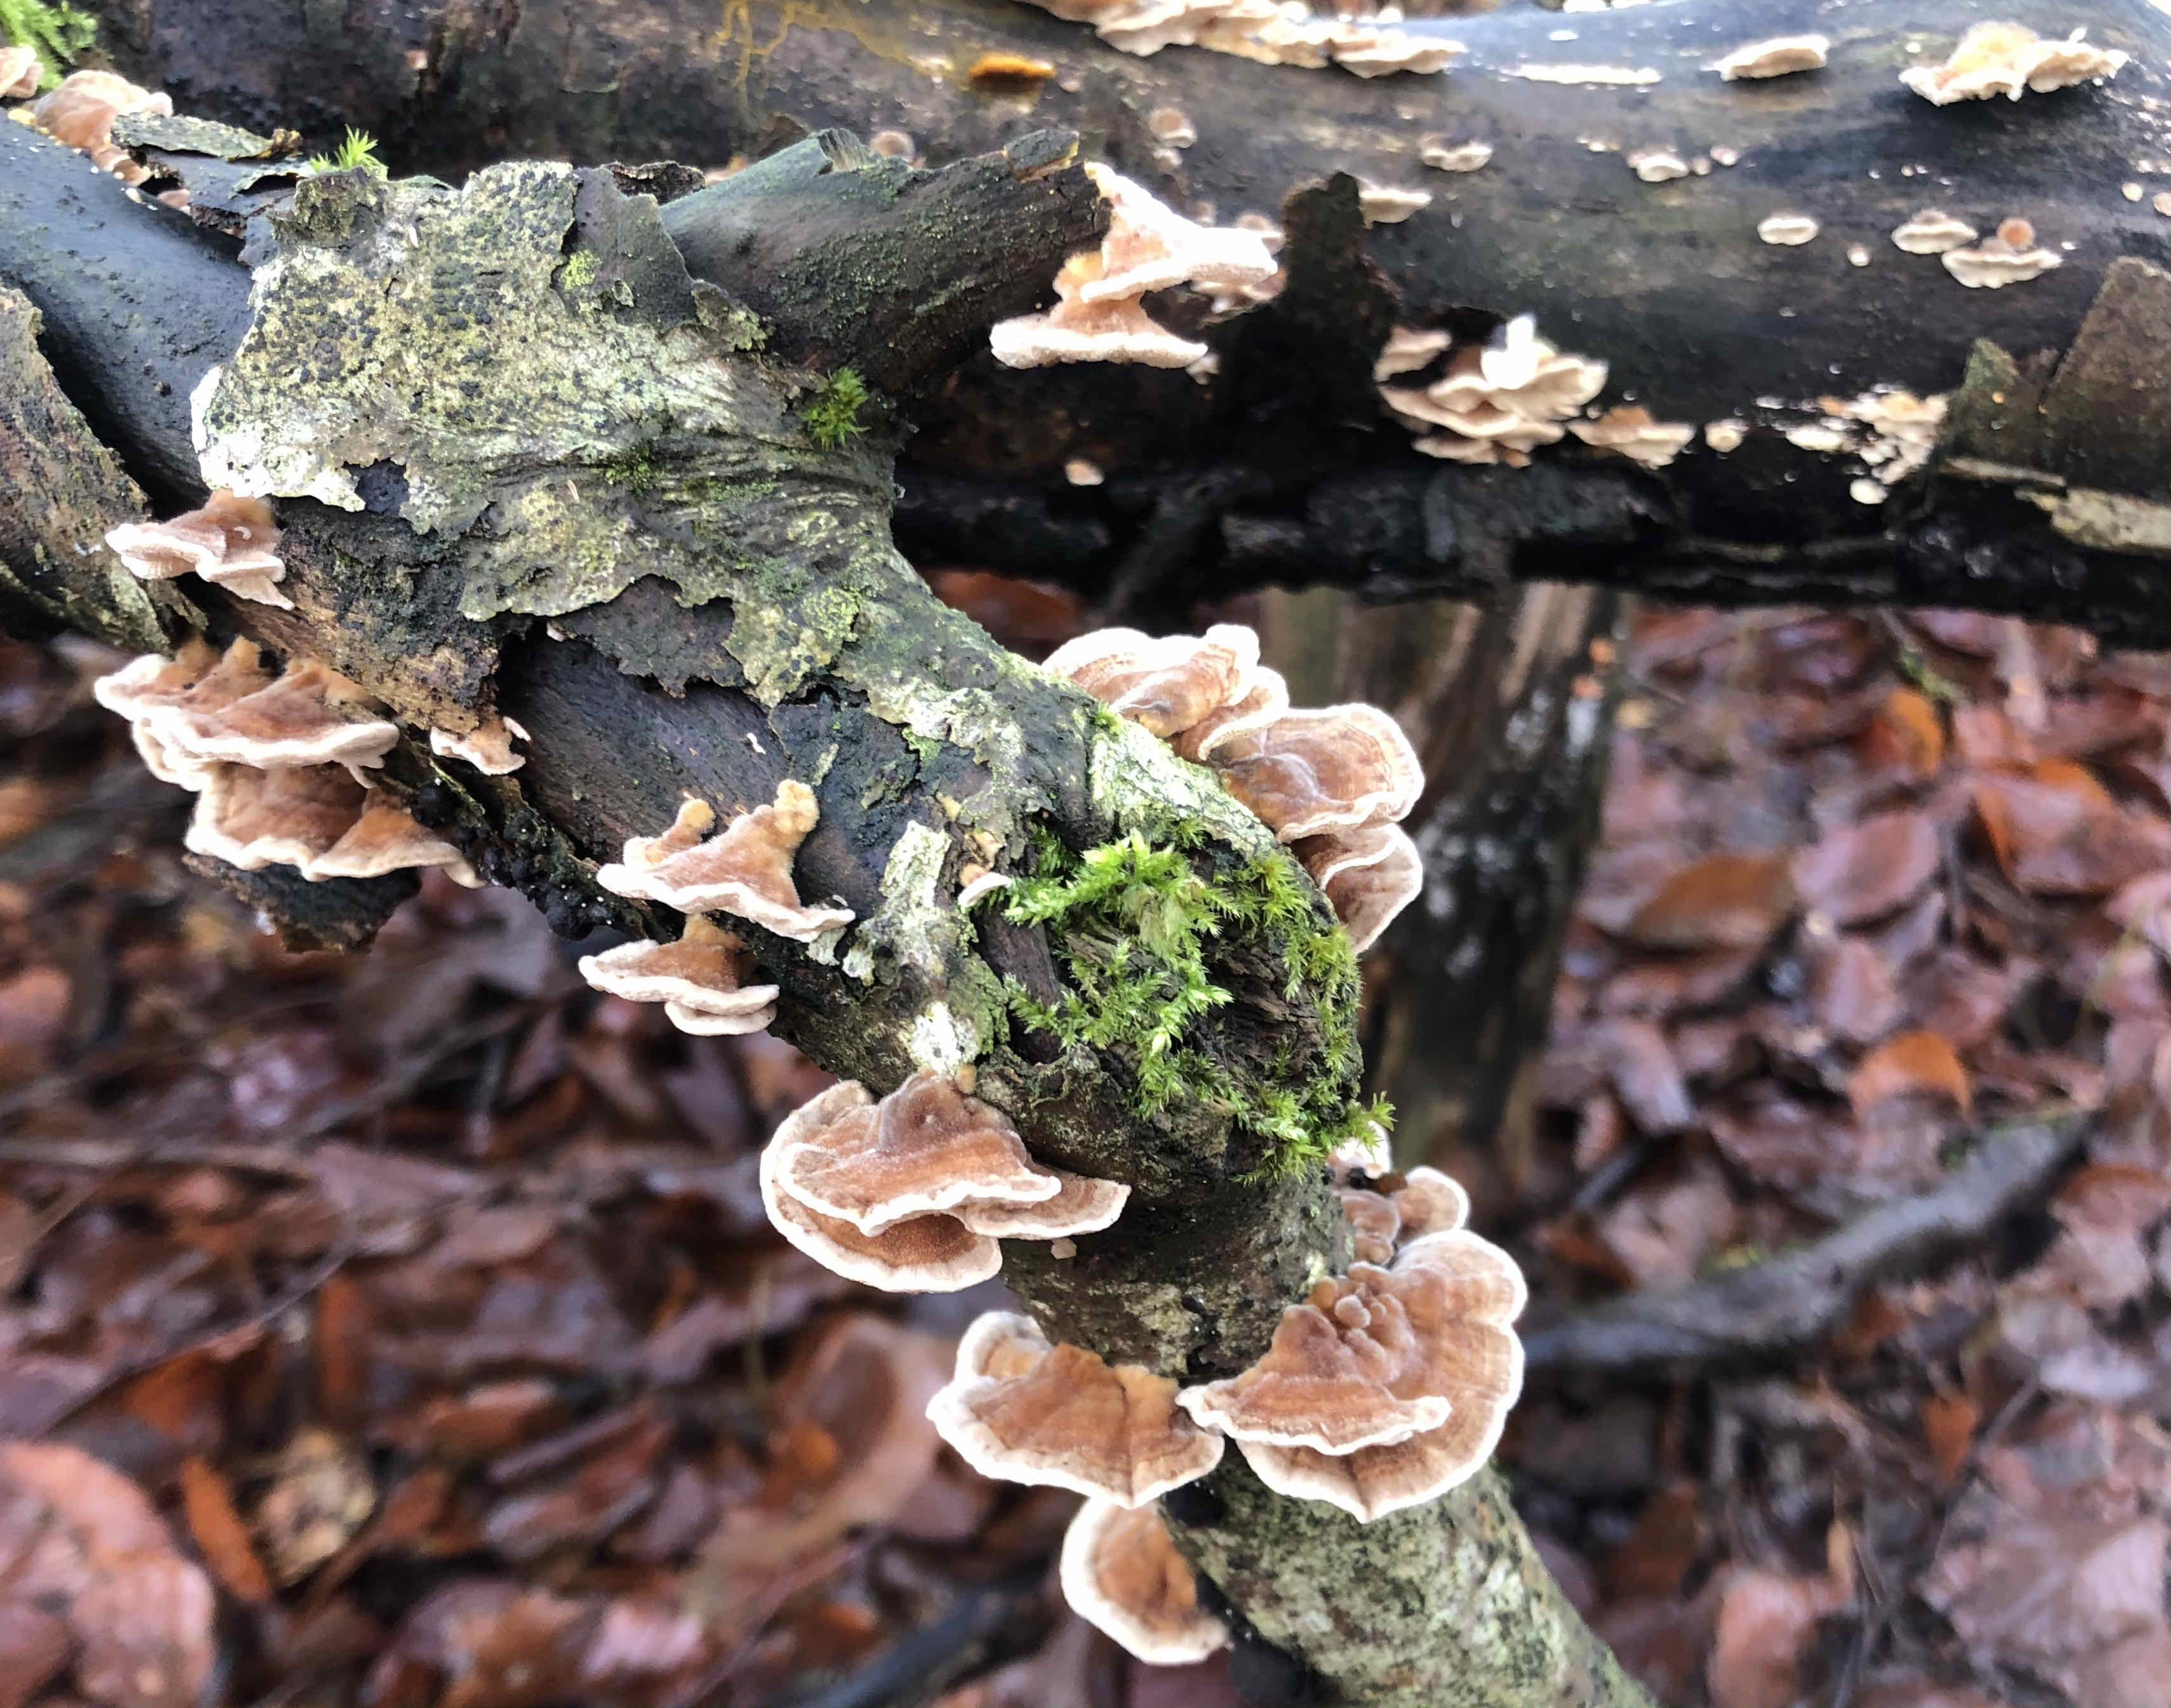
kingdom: Fungi
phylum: Basidiomycota
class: Agaricomycetes
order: Polyporales
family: Polyporaceae
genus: Trametes
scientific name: Trametes versicolor
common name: broget læderporesvamp
